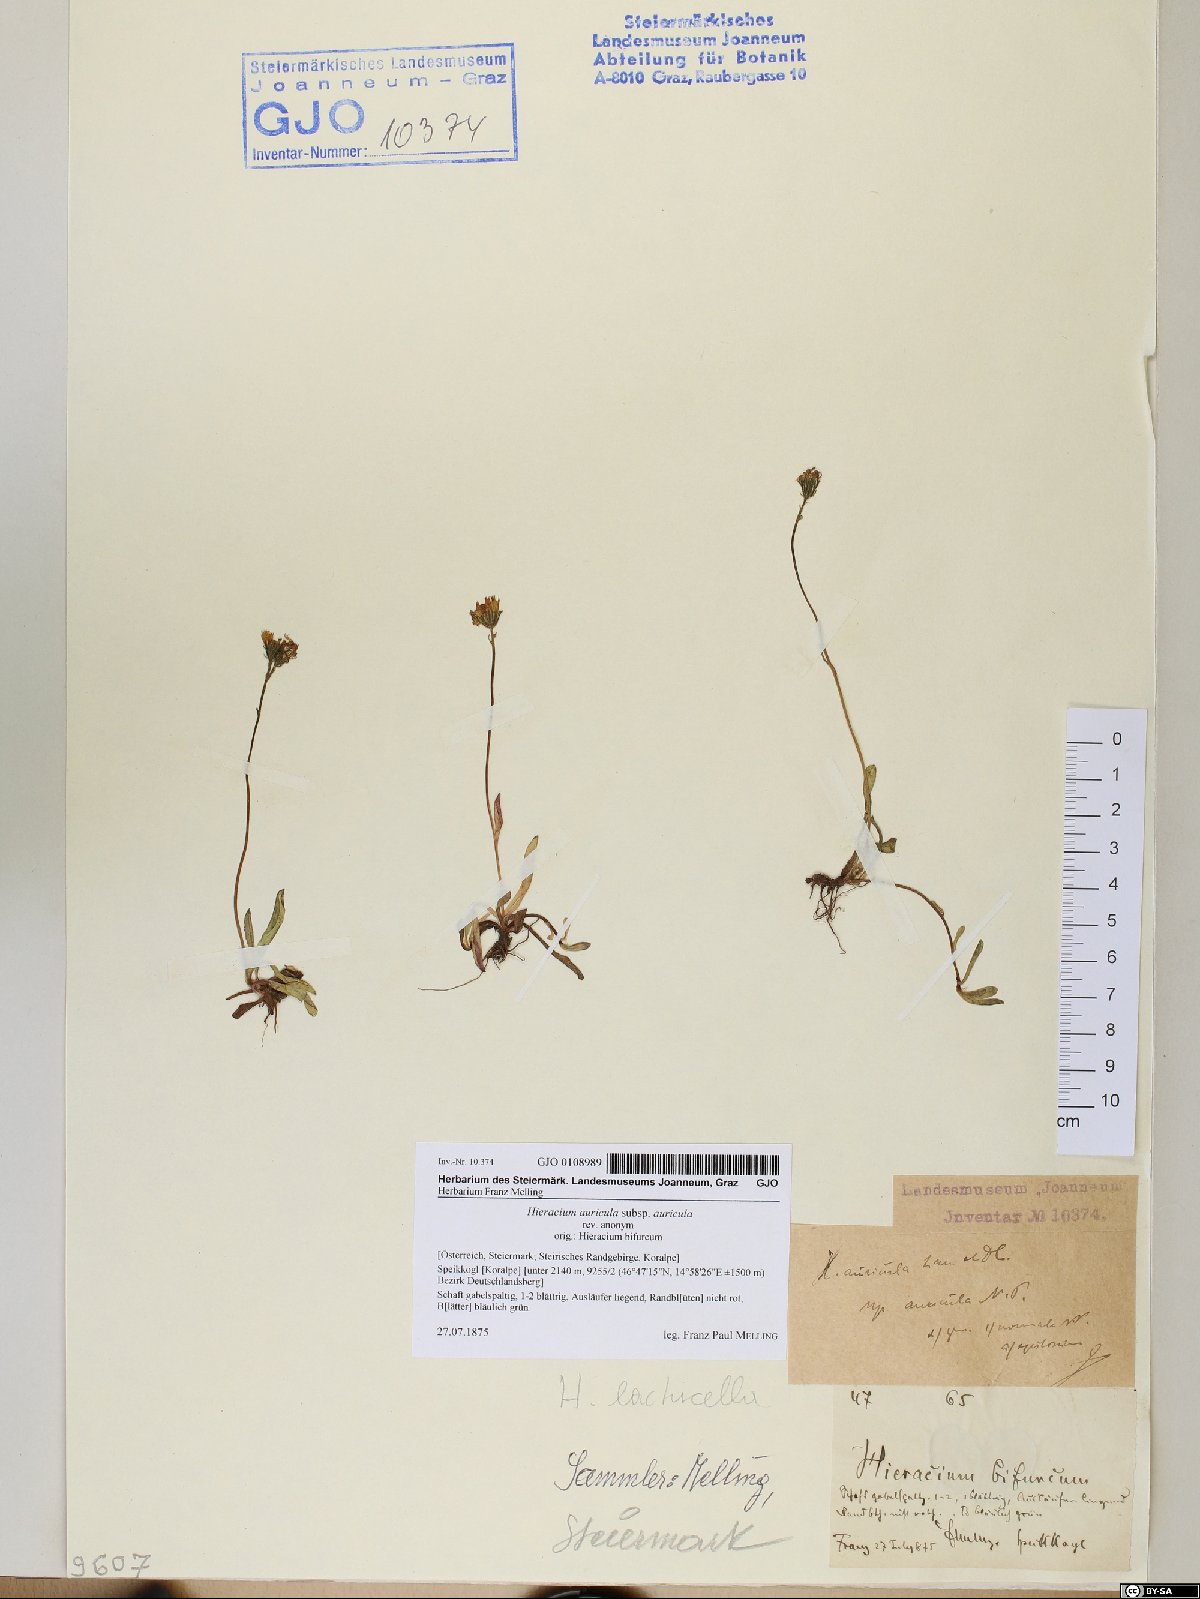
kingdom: Plantae
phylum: Tracheophyta
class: Magnoliopsida
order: Asterales
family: Asteraceae
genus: Hieracium
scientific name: Hieracium auricula
